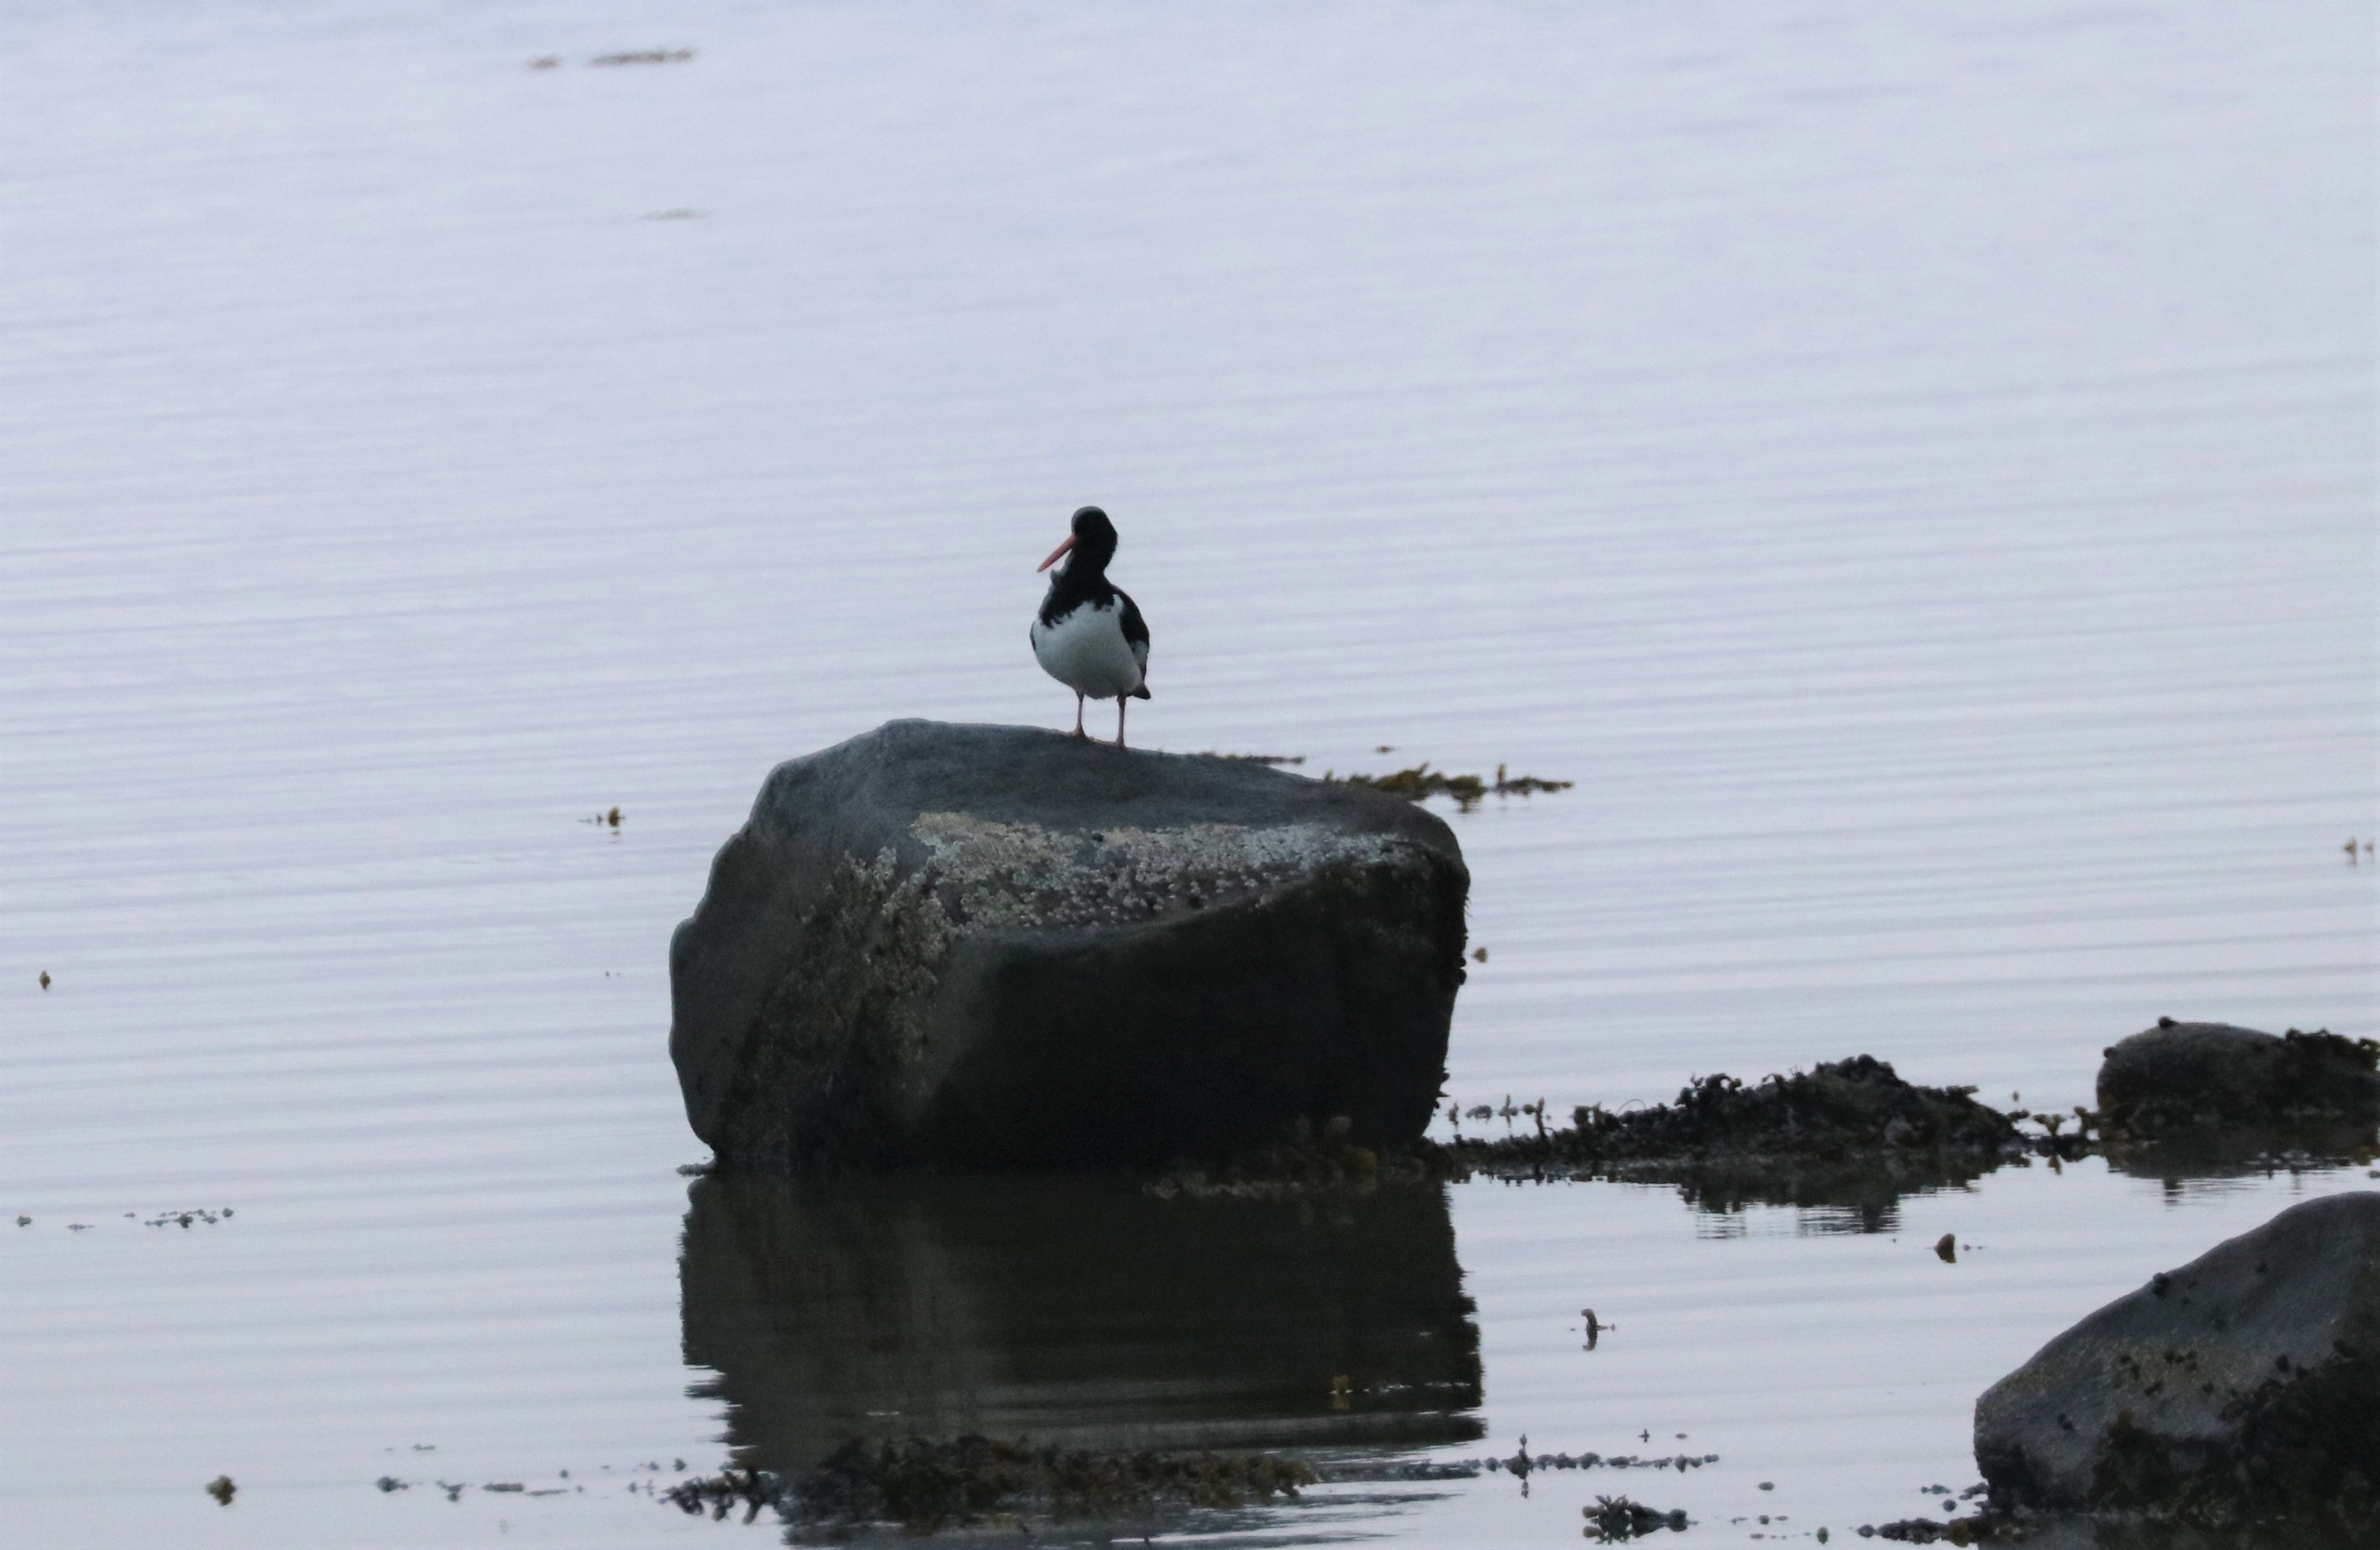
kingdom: Animalia
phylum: Chordata
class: Aves
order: Charadriiformes
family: Haematopodidae
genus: Haematopus
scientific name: Haematopus ostralegus
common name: Strandskade
